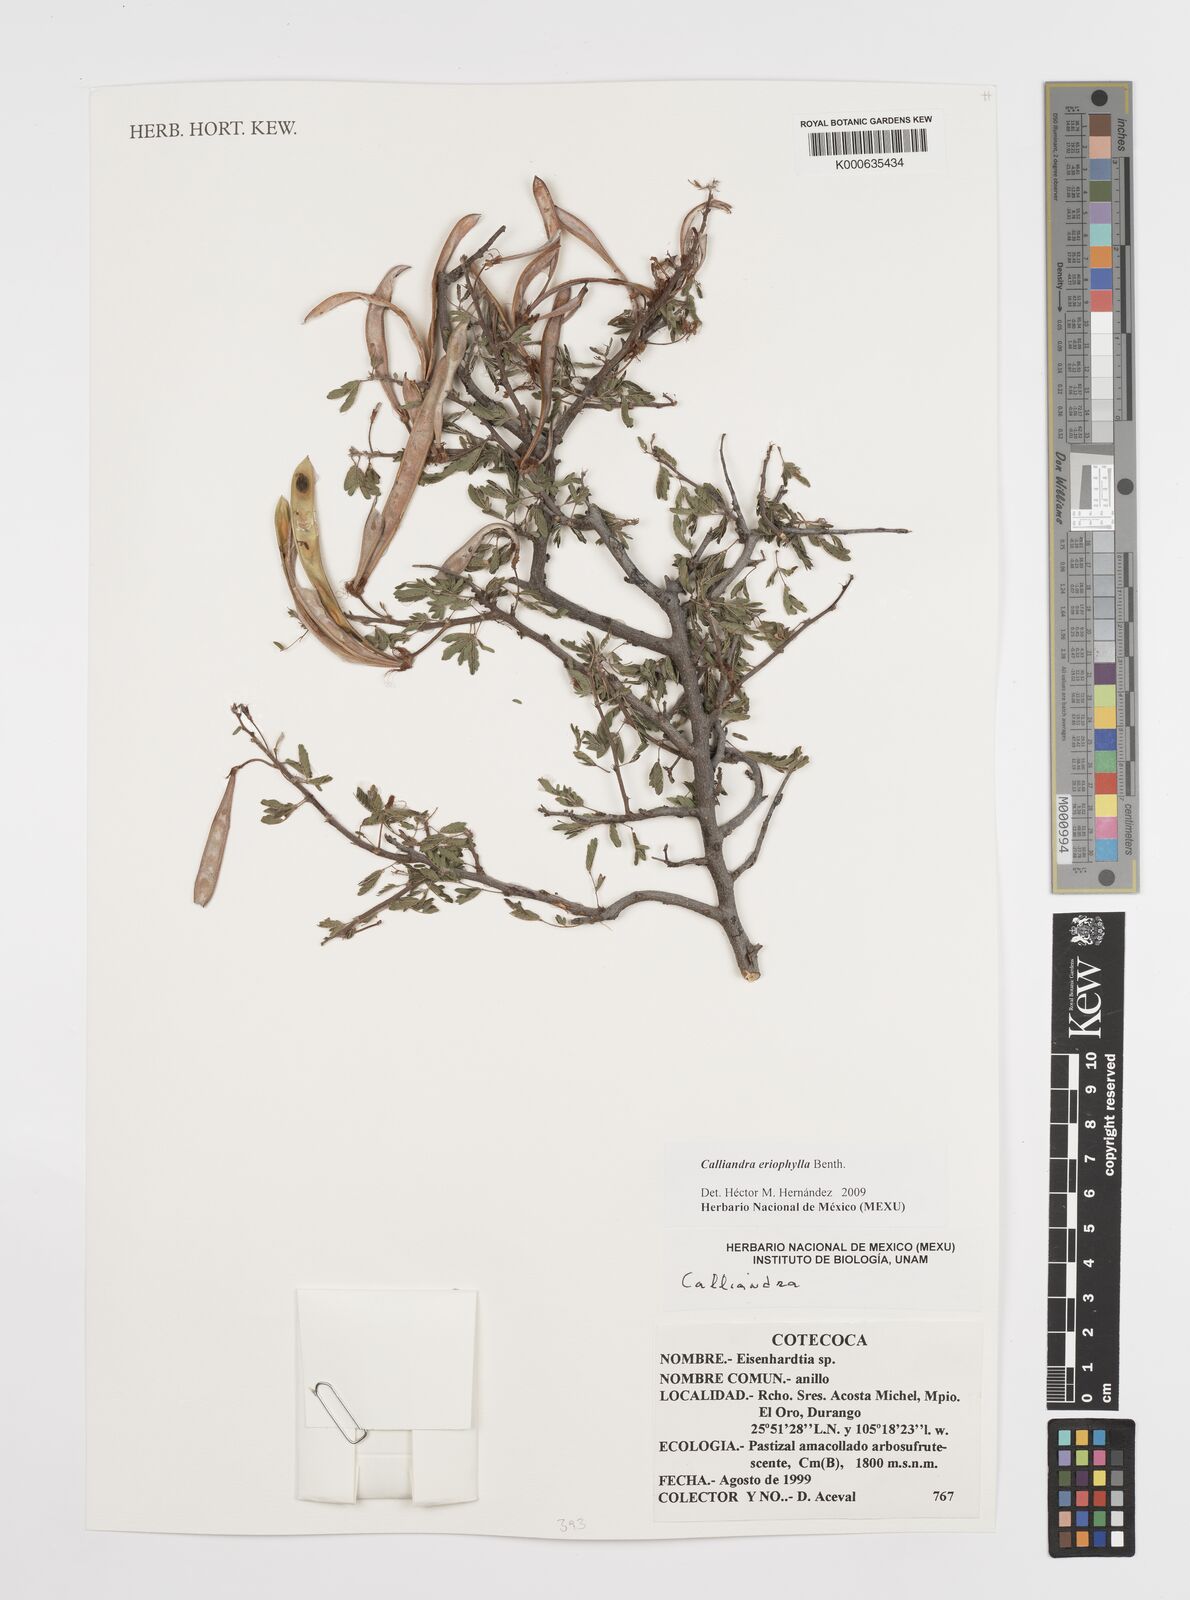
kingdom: Plantae
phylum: Tracheophyta
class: Magnoliopsida
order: Fabales
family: Fabaceae
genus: Calliandra
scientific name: Calliandra eriophylla
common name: Fairy-duster
